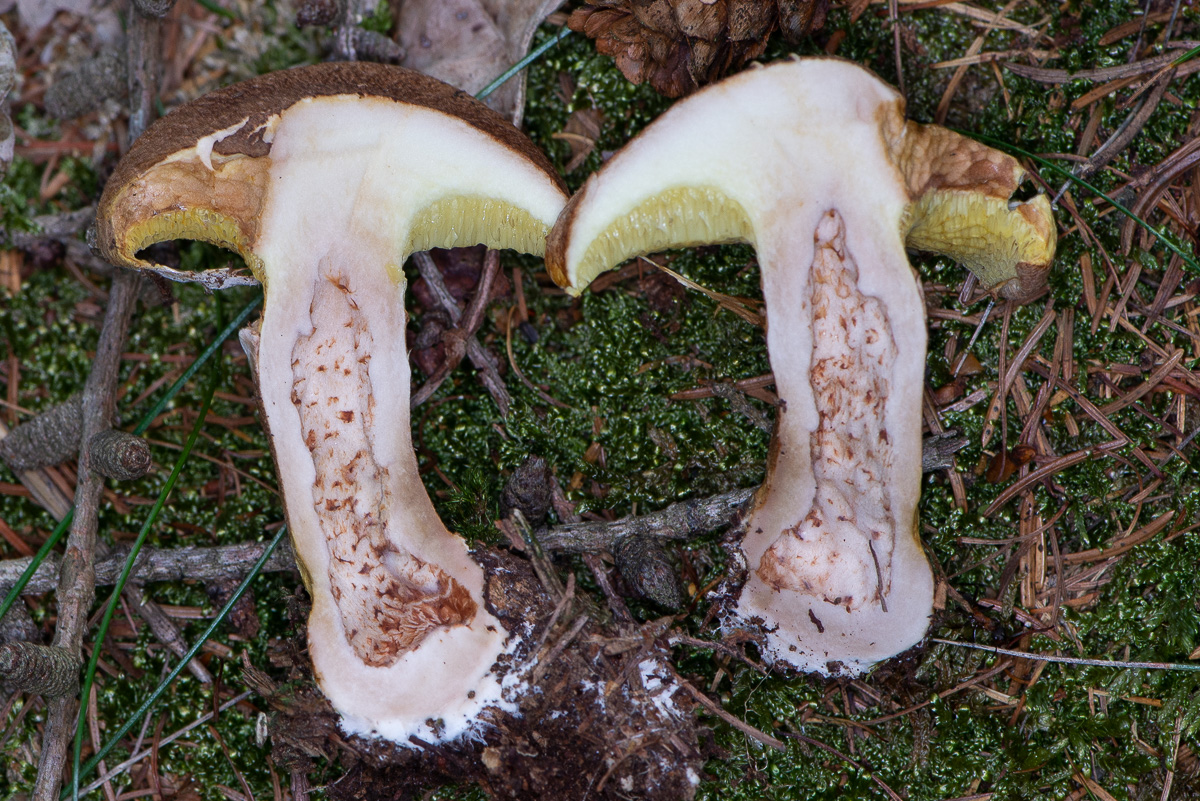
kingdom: Fungi
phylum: Basidiomycota
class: Agaricomycetes
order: Boletales
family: Suillaceae
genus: Suillus
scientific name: Suillus cavipes
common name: hulstokket slimrørhat
